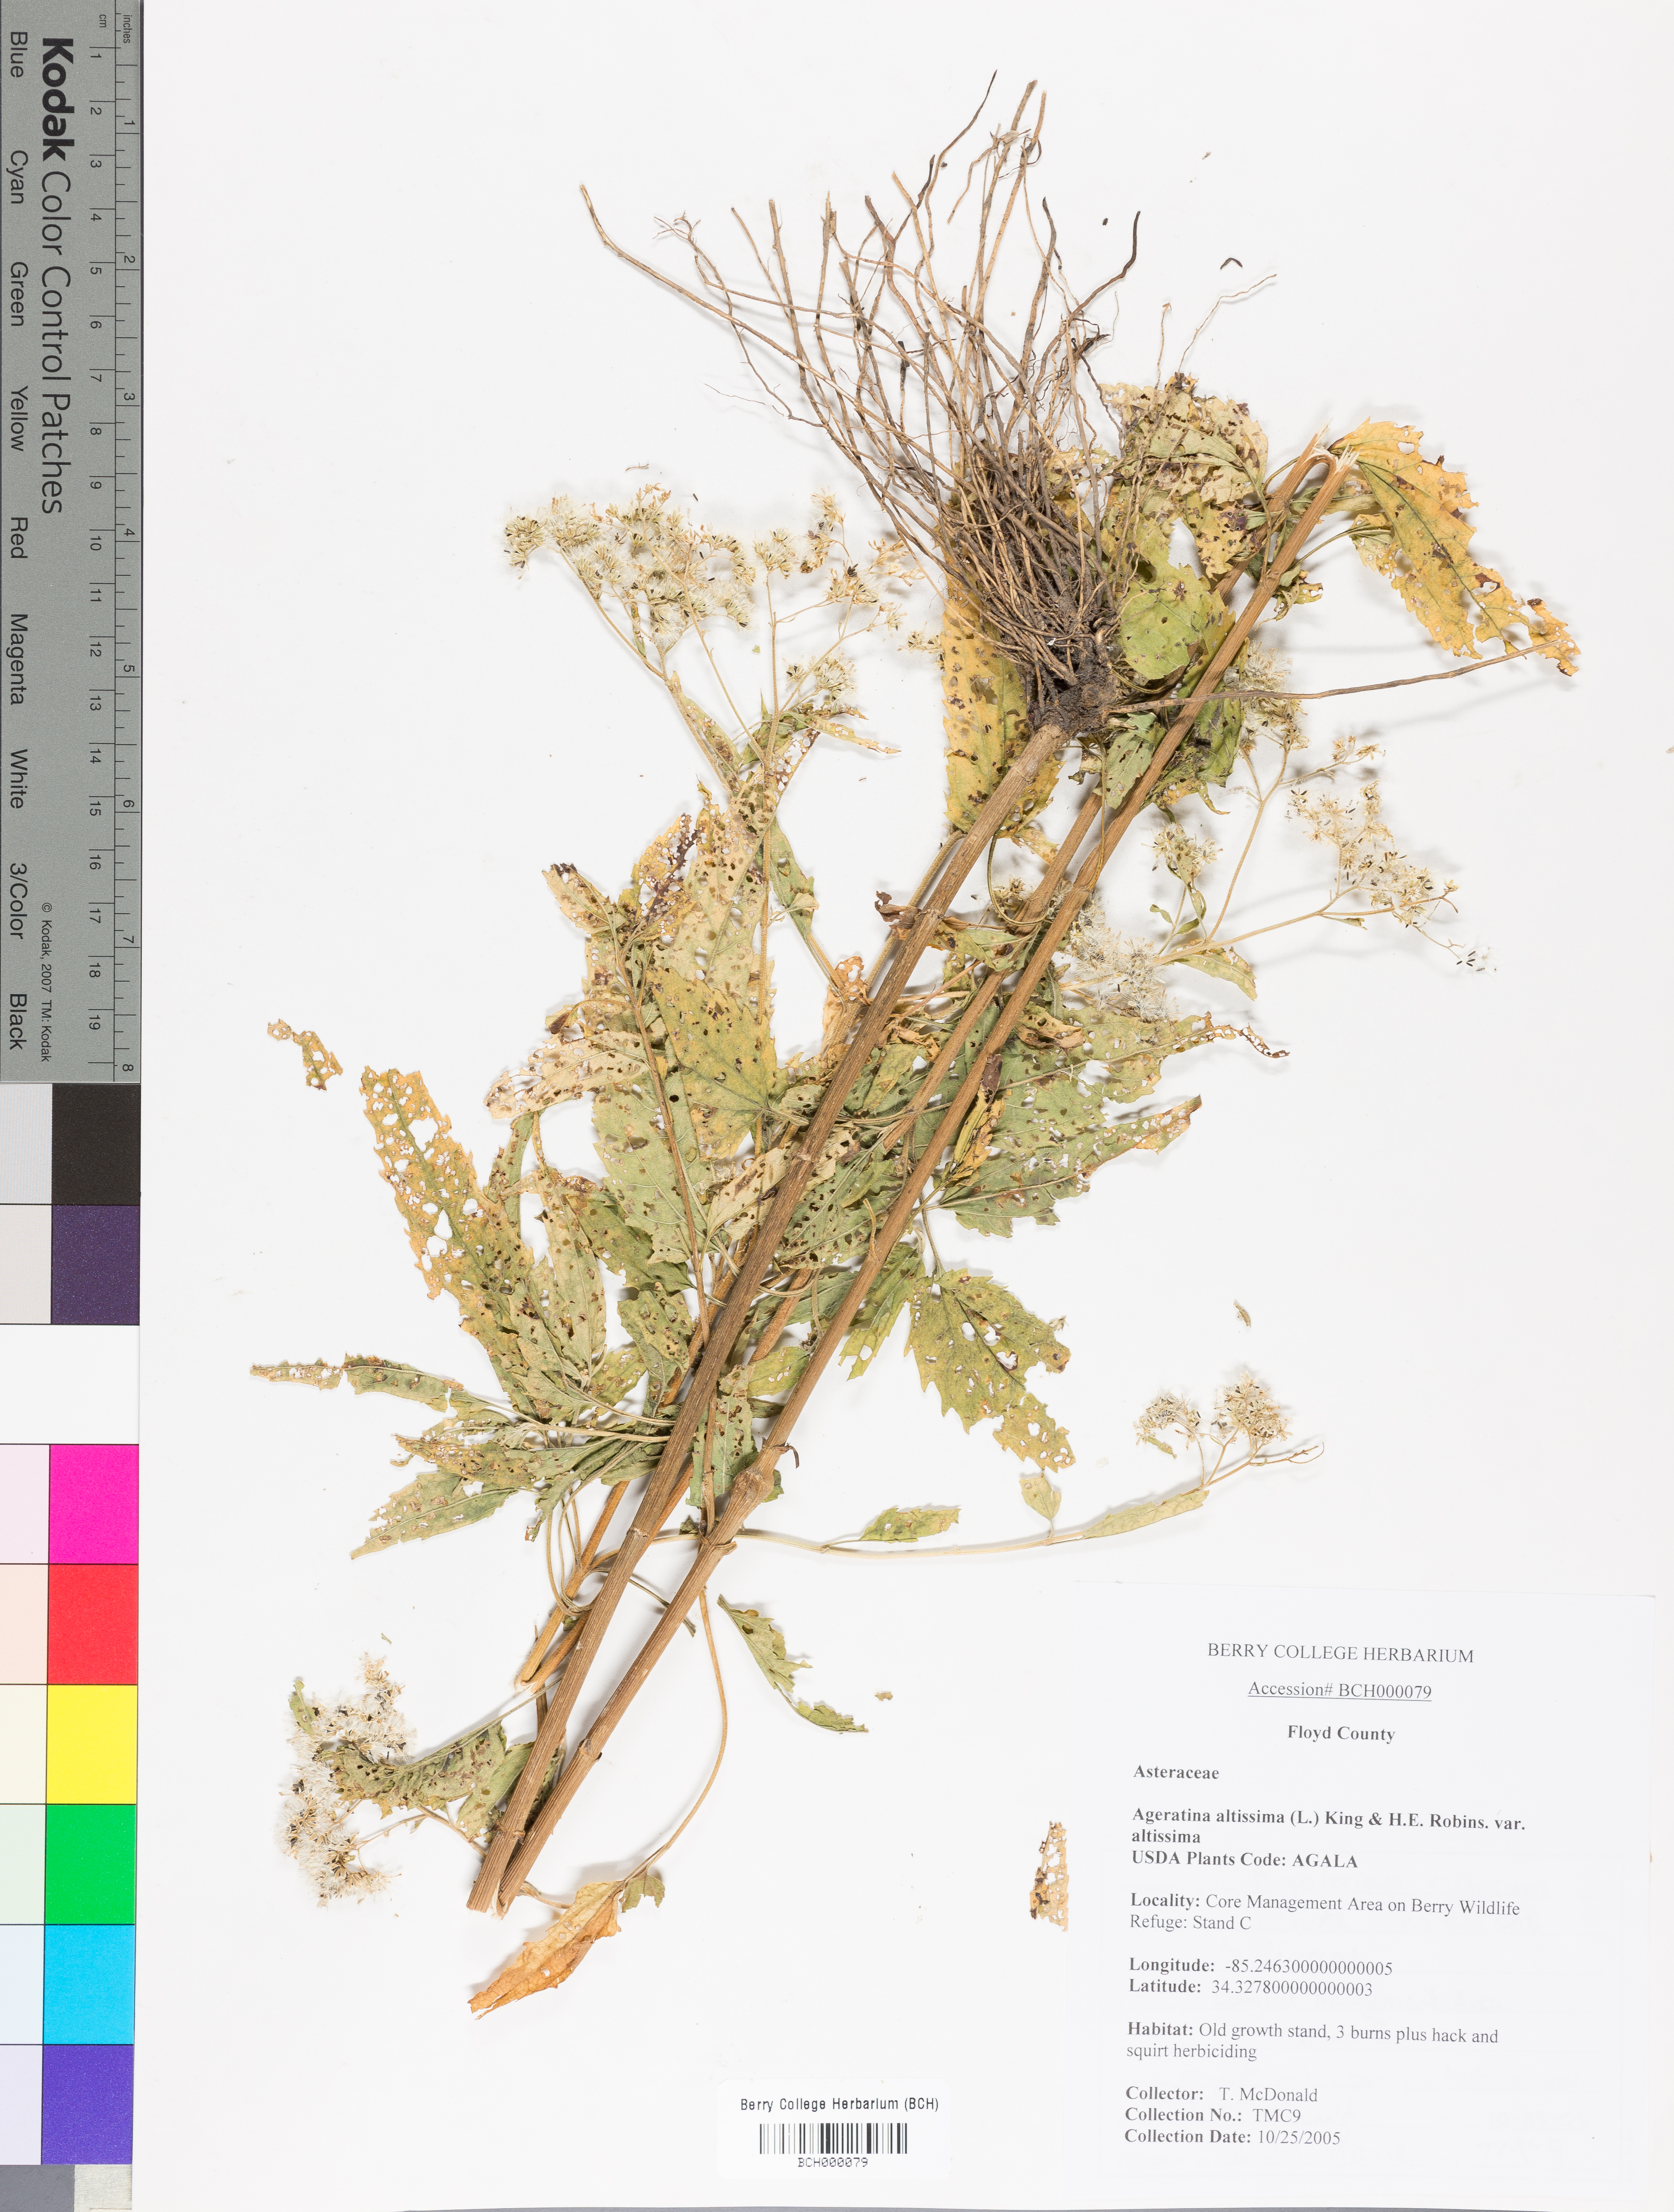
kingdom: Plantae
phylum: Tracheophyta
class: Magnoliopsida
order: Asterales
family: Asteraceae
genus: Ageratina
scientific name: Ageratina altissima
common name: White snakeroot
